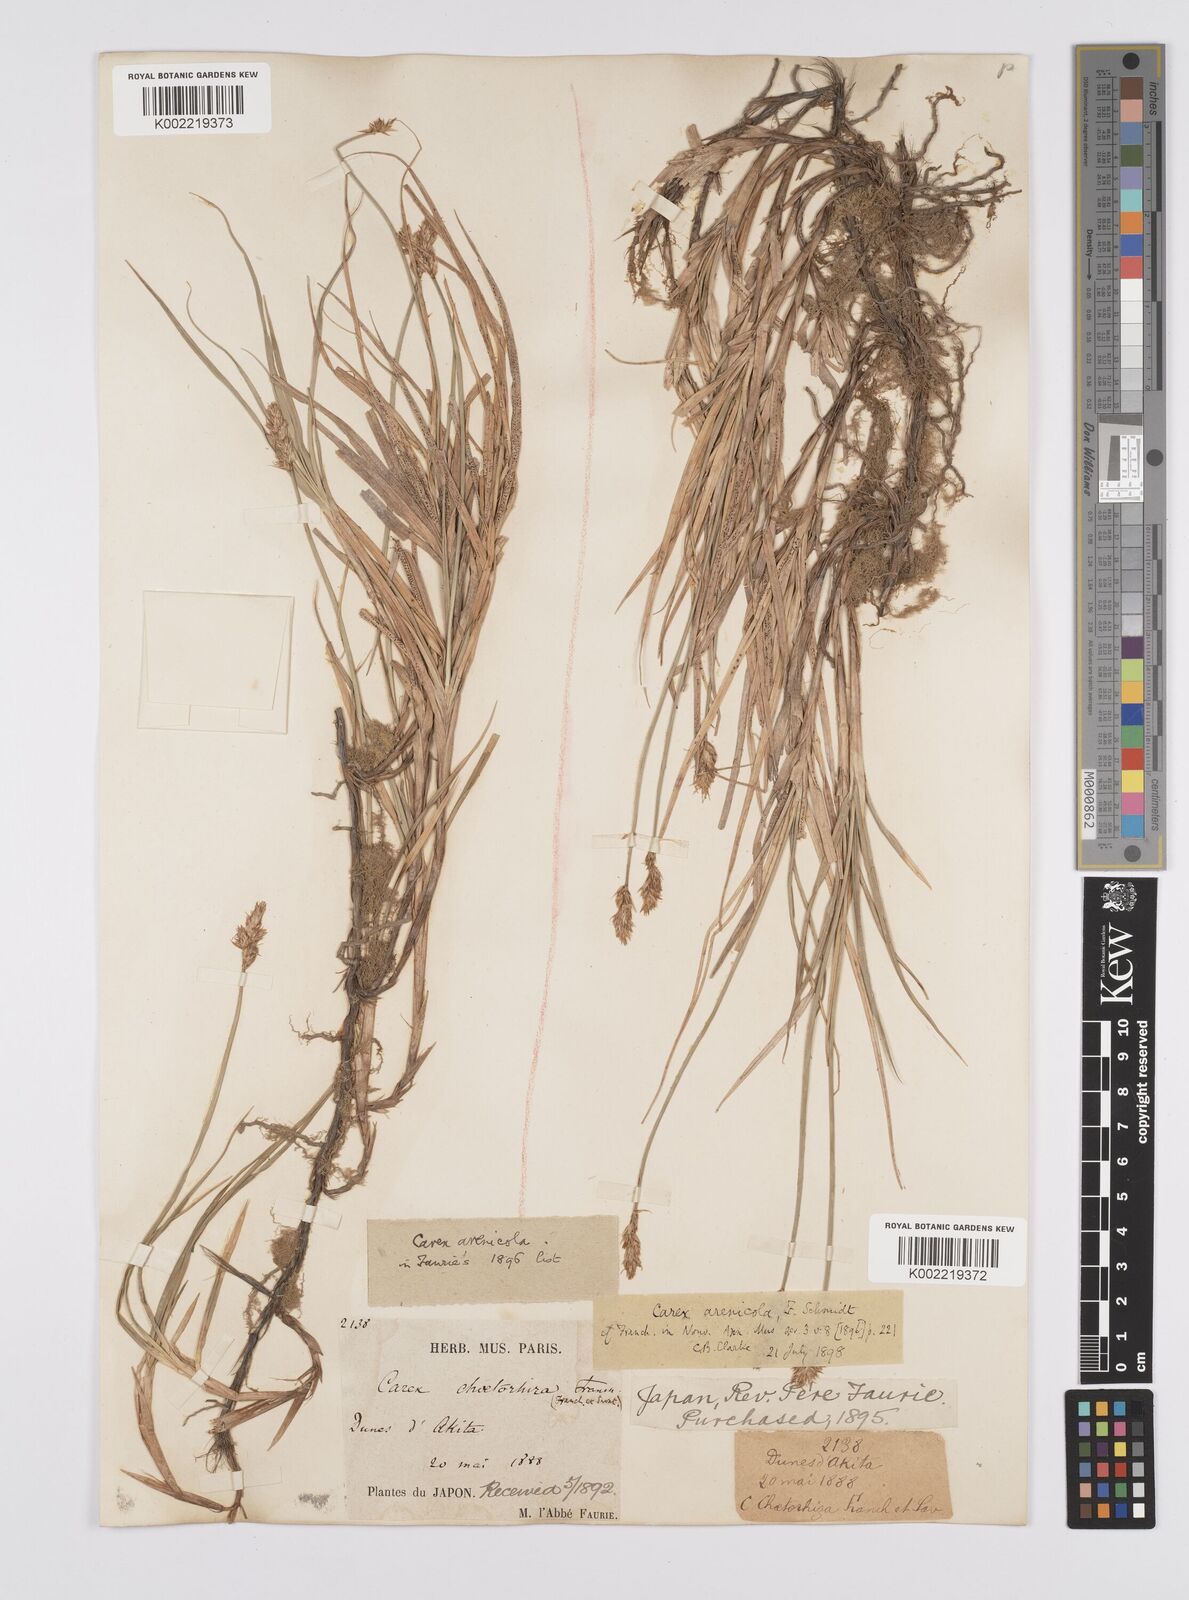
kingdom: Plantae
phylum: Tracheophyta
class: Liliopsida
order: Poales
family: Cyperaceae
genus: Carex
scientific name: Carex arenicola
